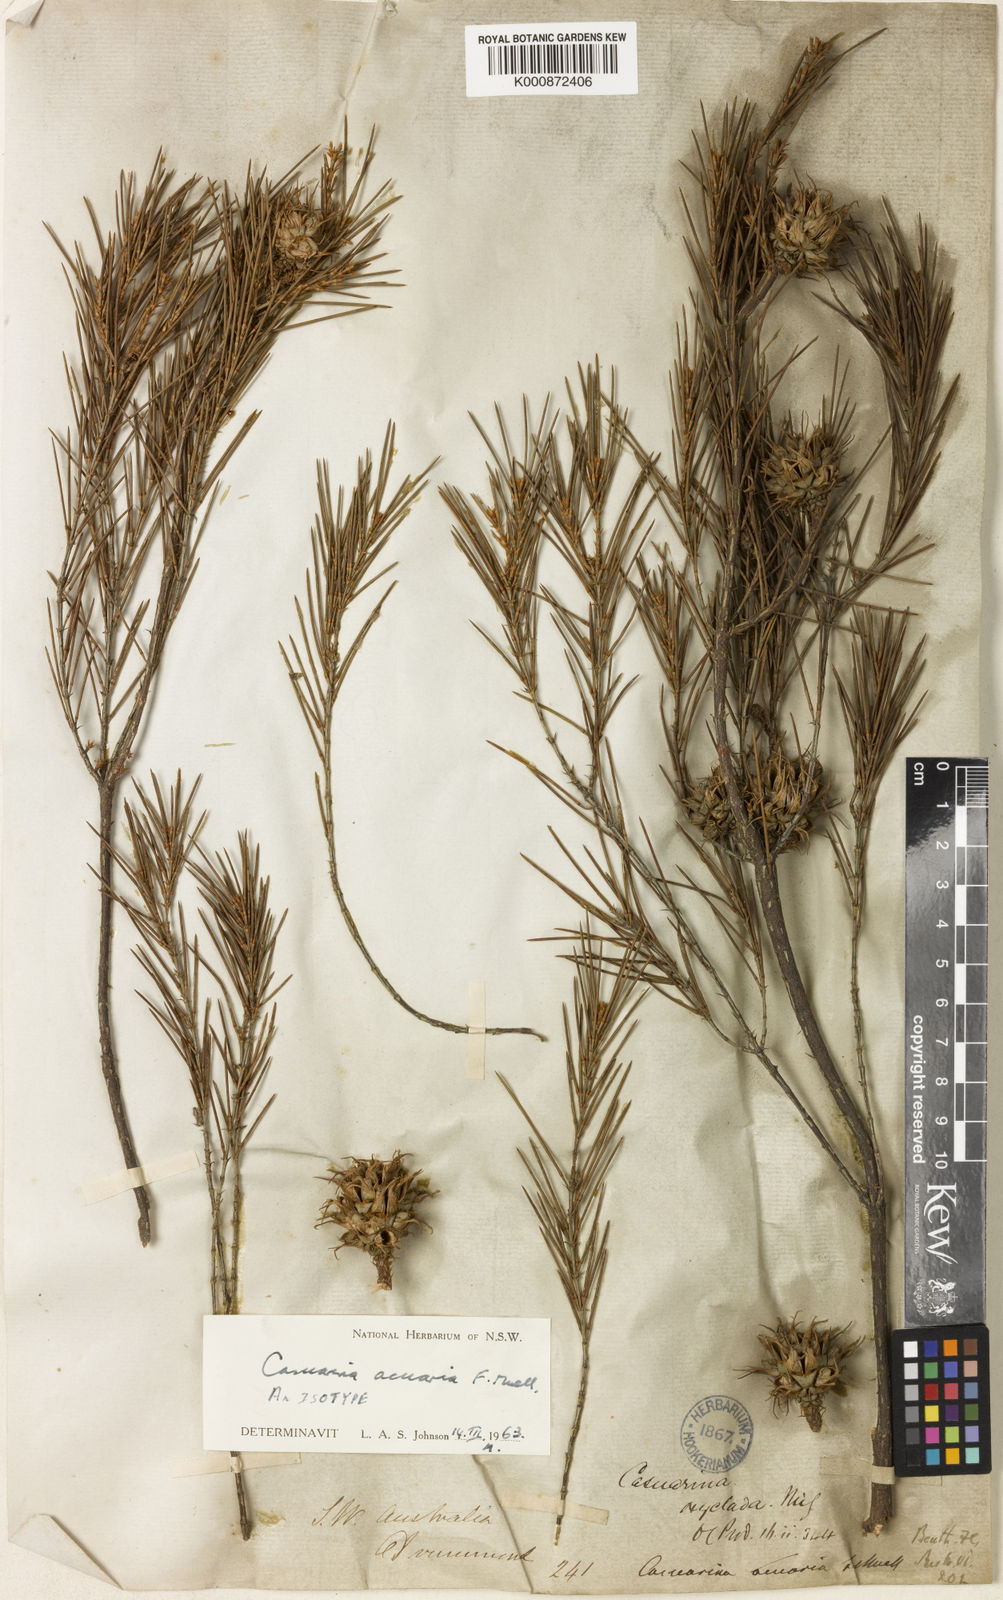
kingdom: Plantae
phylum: Tracheophyta
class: Magnoliopsida
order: Fagales
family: Casuarinaceae
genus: Allocasuarina
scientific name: Allocasuarina acuaria
